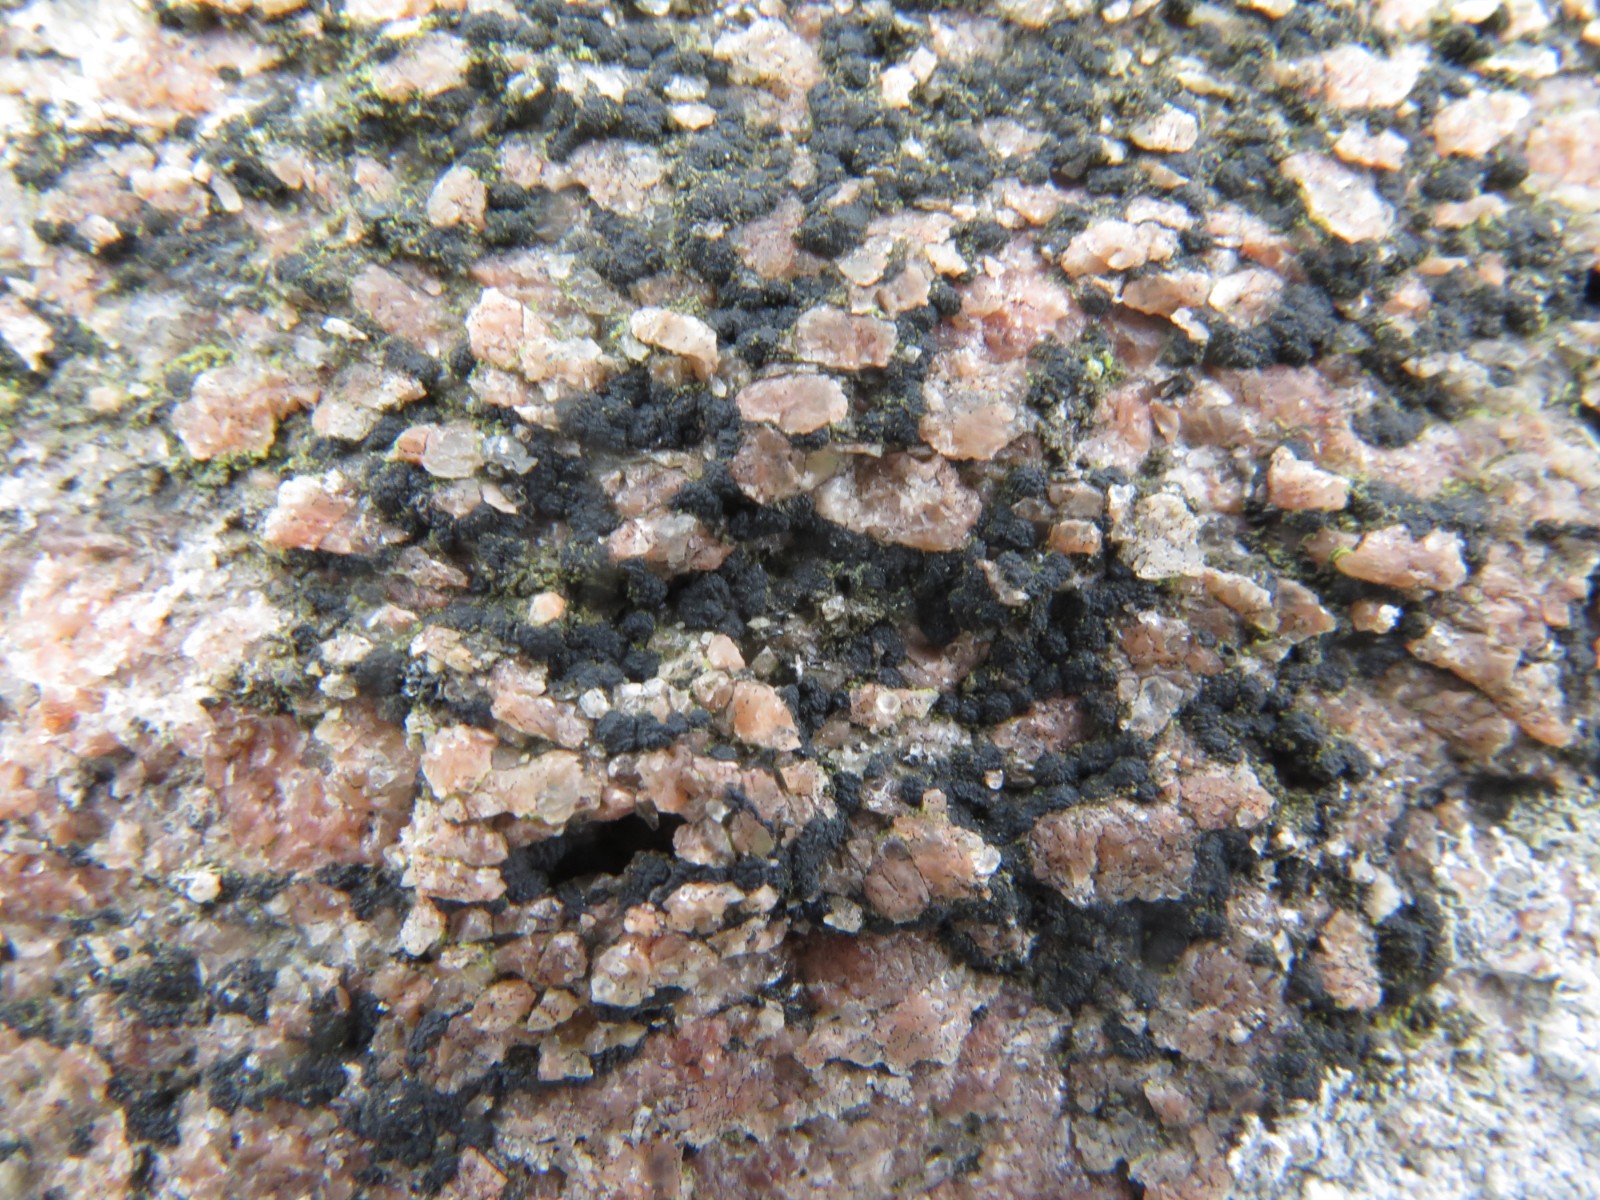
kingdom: Fungi
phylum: Ascomycota
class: Lecanoromycetes
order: Acarosporales
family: Acarosporaceae
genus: Acarospora
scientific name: Acarospora privigna
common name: sort foldekantlav
